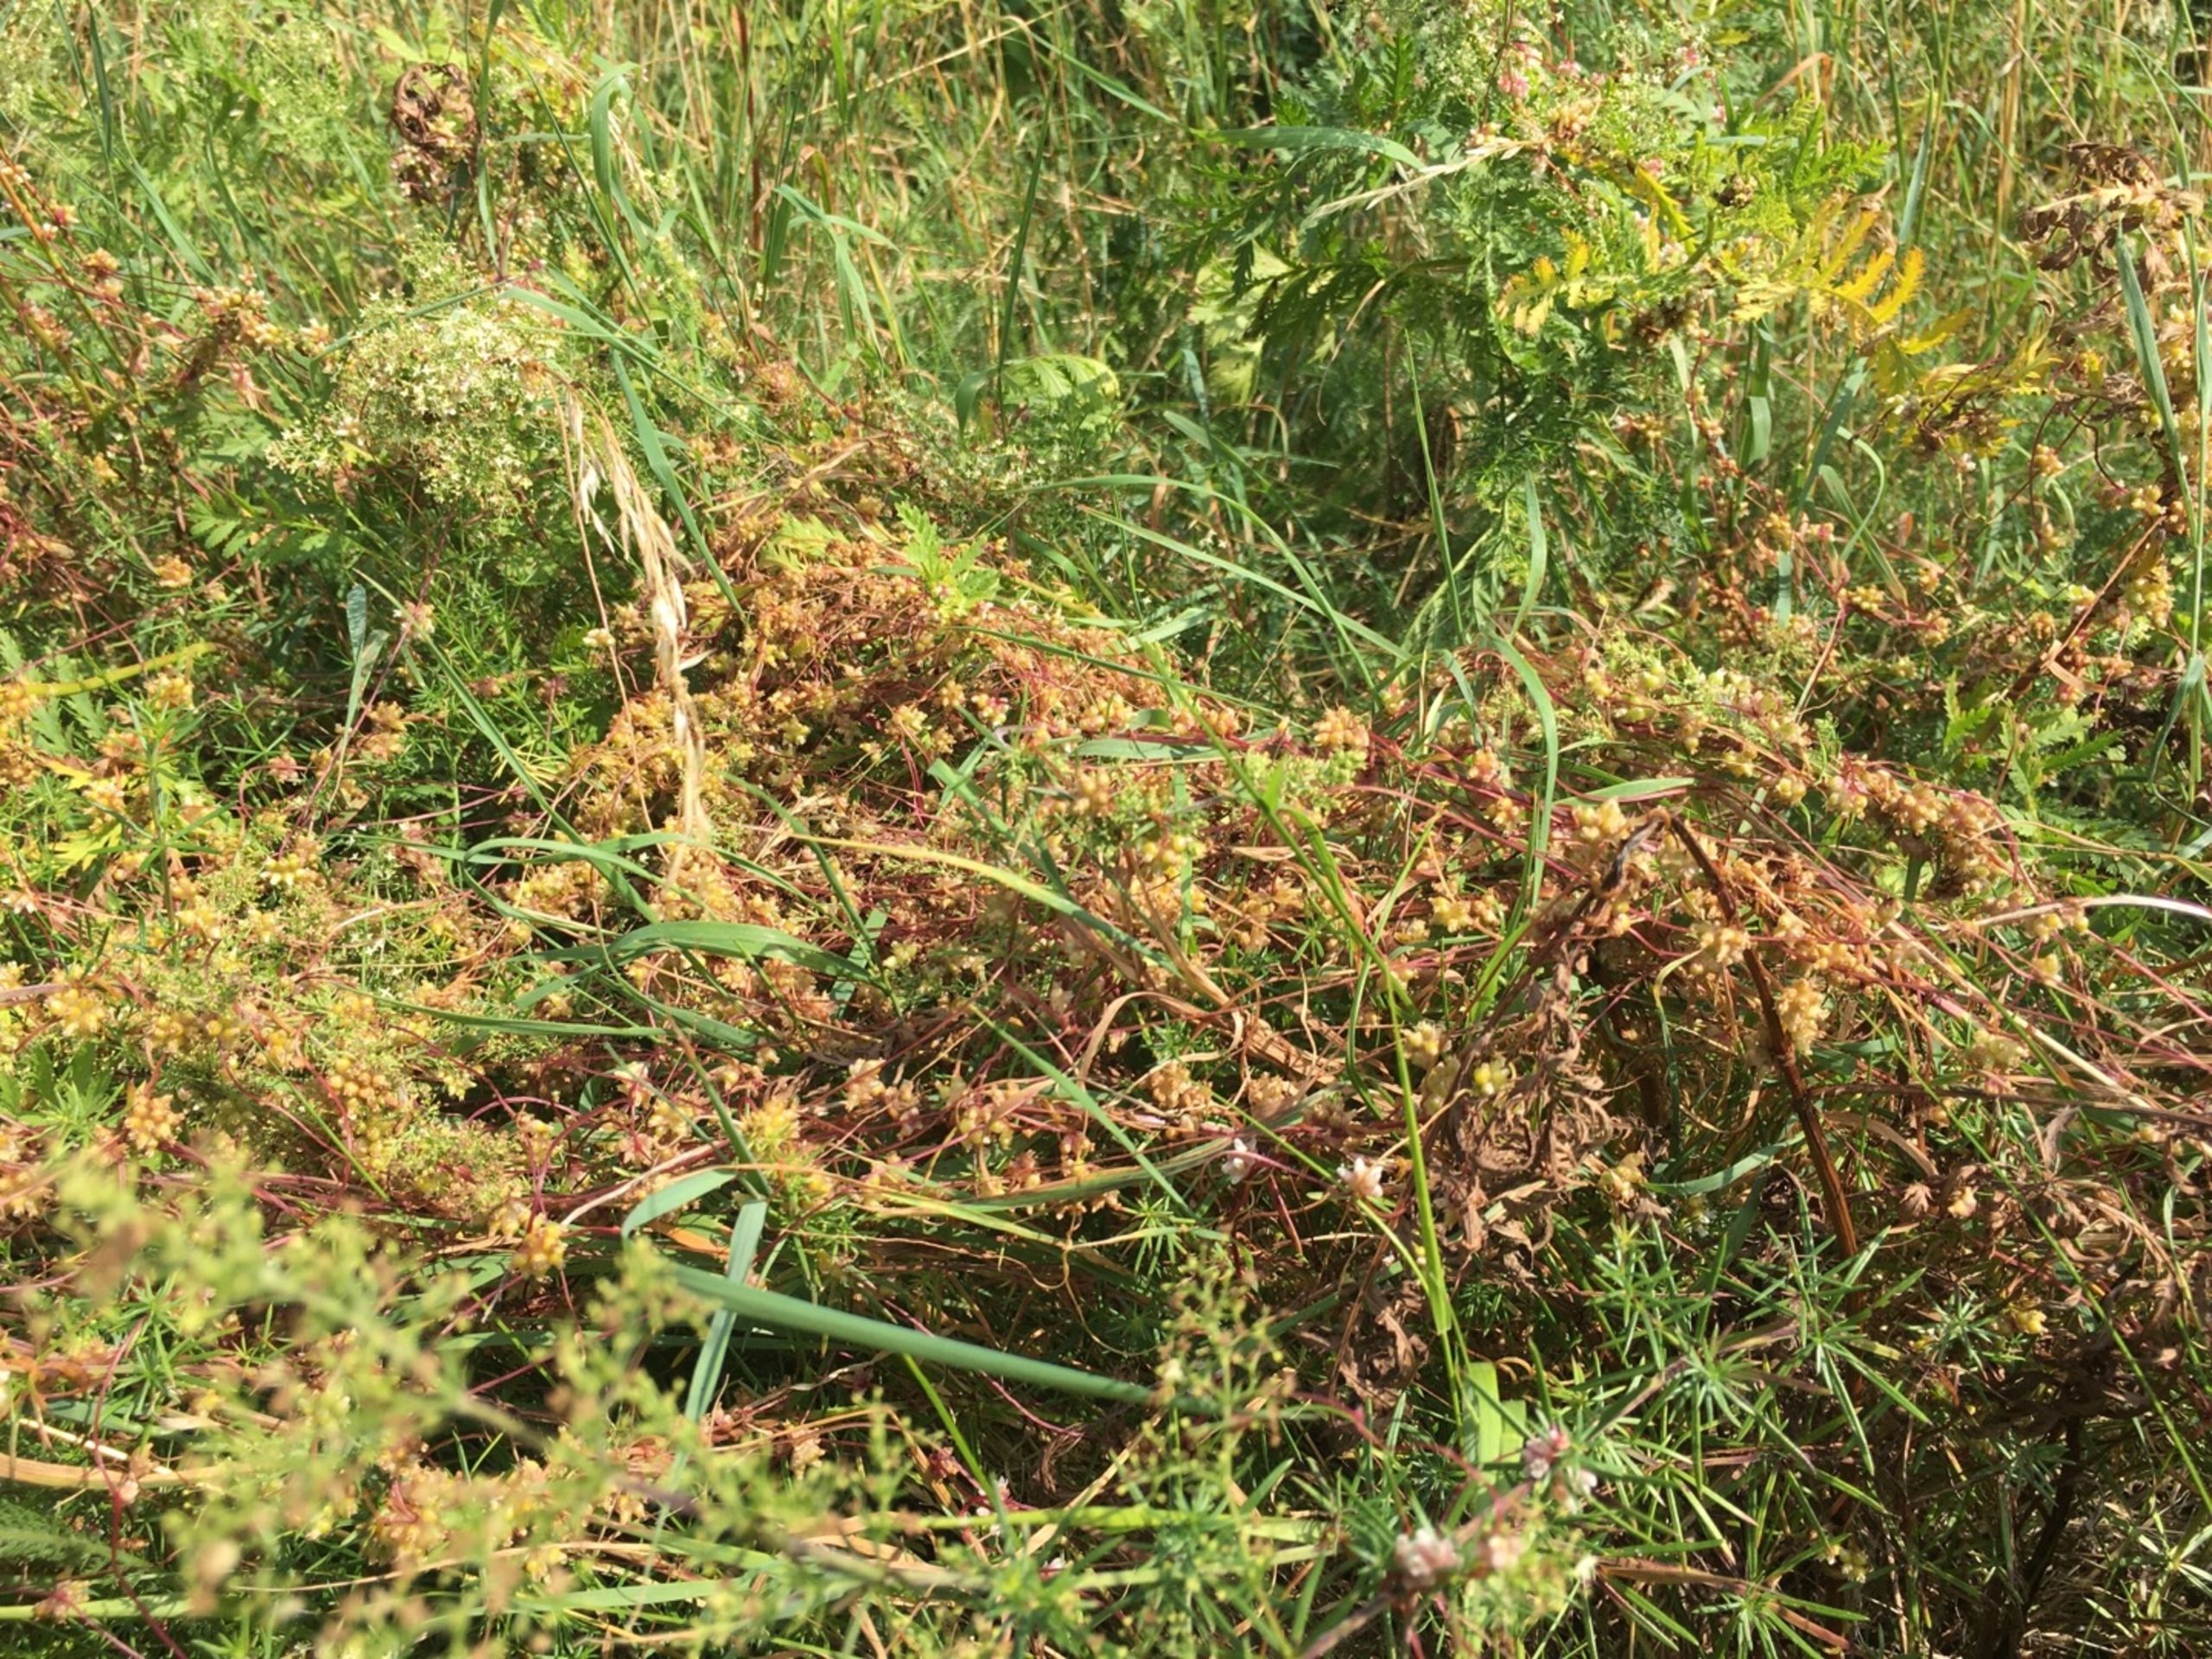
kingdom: Plantae
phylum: Tracheophyta
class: Magnoliopsida
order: Solanales
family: Convolvulaceae
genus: Cuscuta
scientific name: Cuscuta europaea
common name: Nælde-silke
